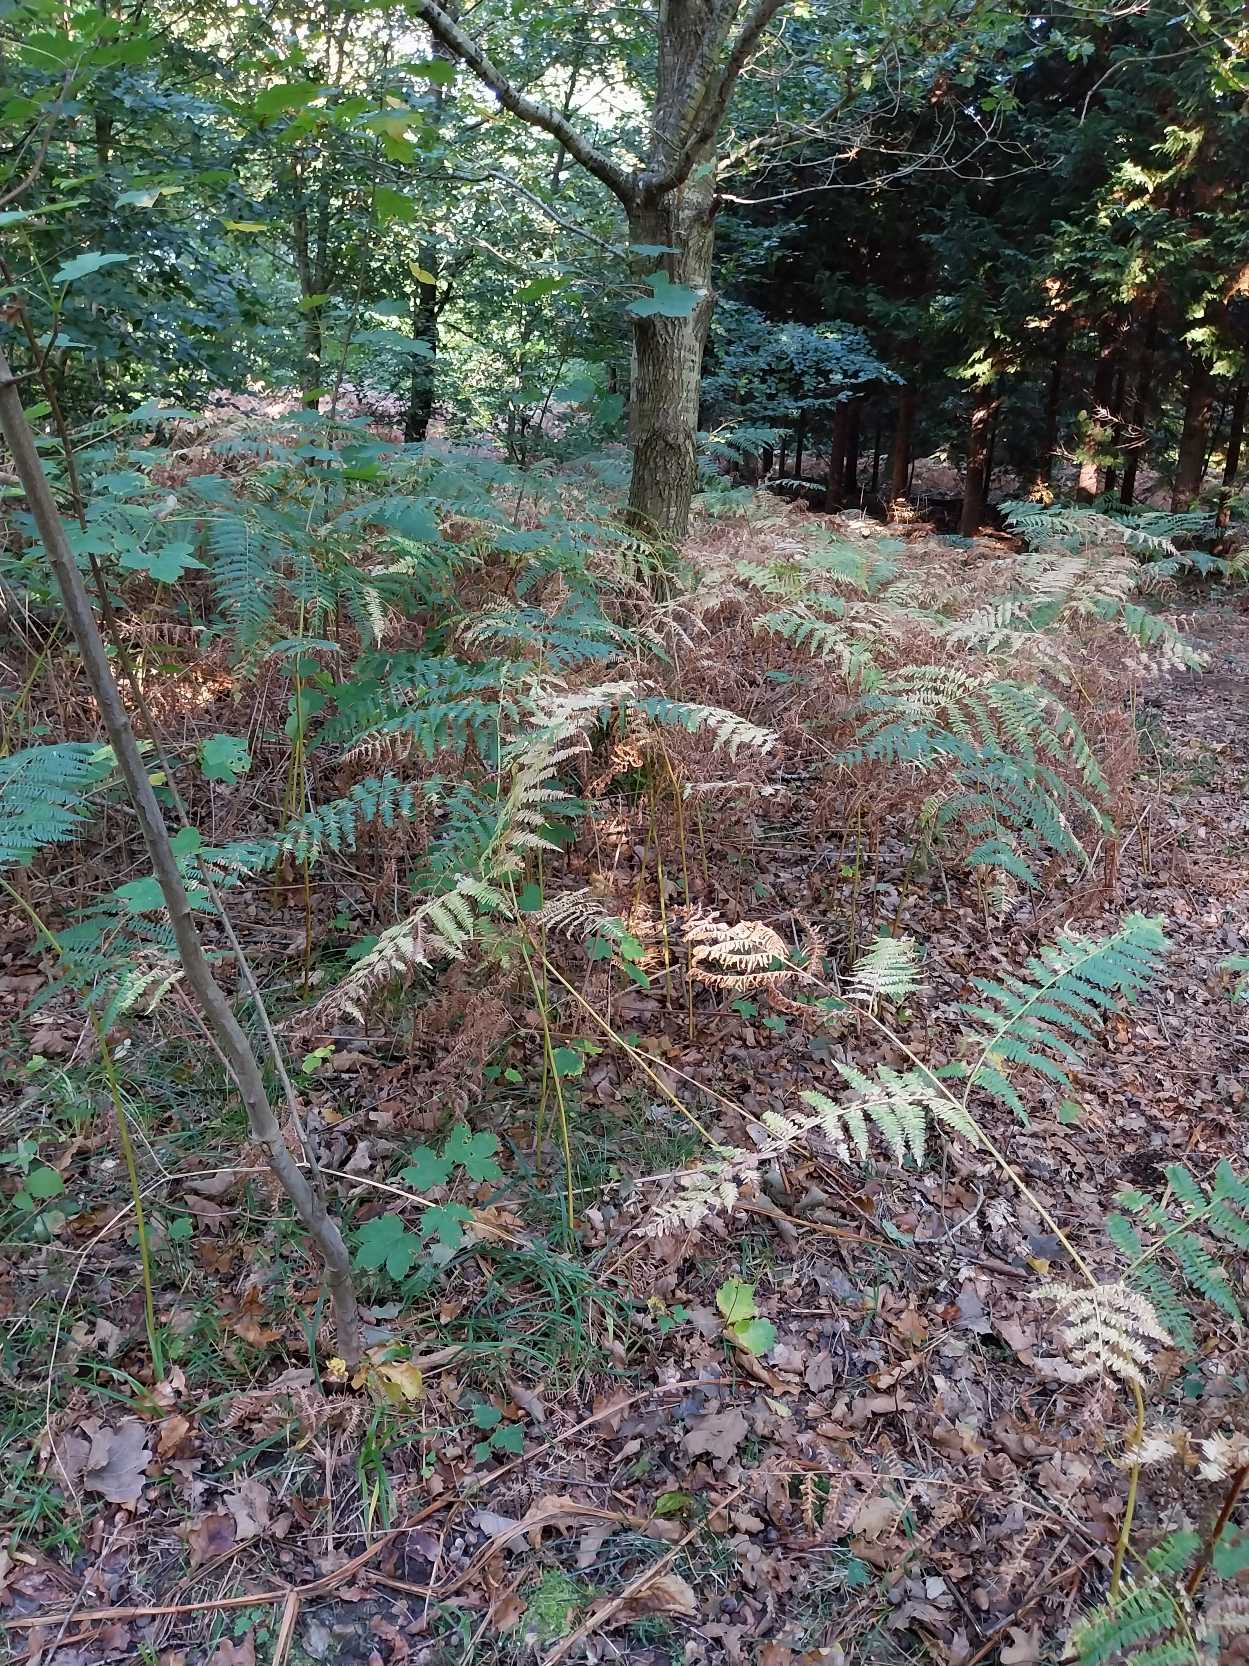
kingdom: Plantae
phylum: Tracheophyta
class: Polypodiopsida
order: Polypodiales
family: Dennstaedtiaceae
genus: Pteridium
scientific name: Pteridium aquilinum
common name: Ørnebregne
